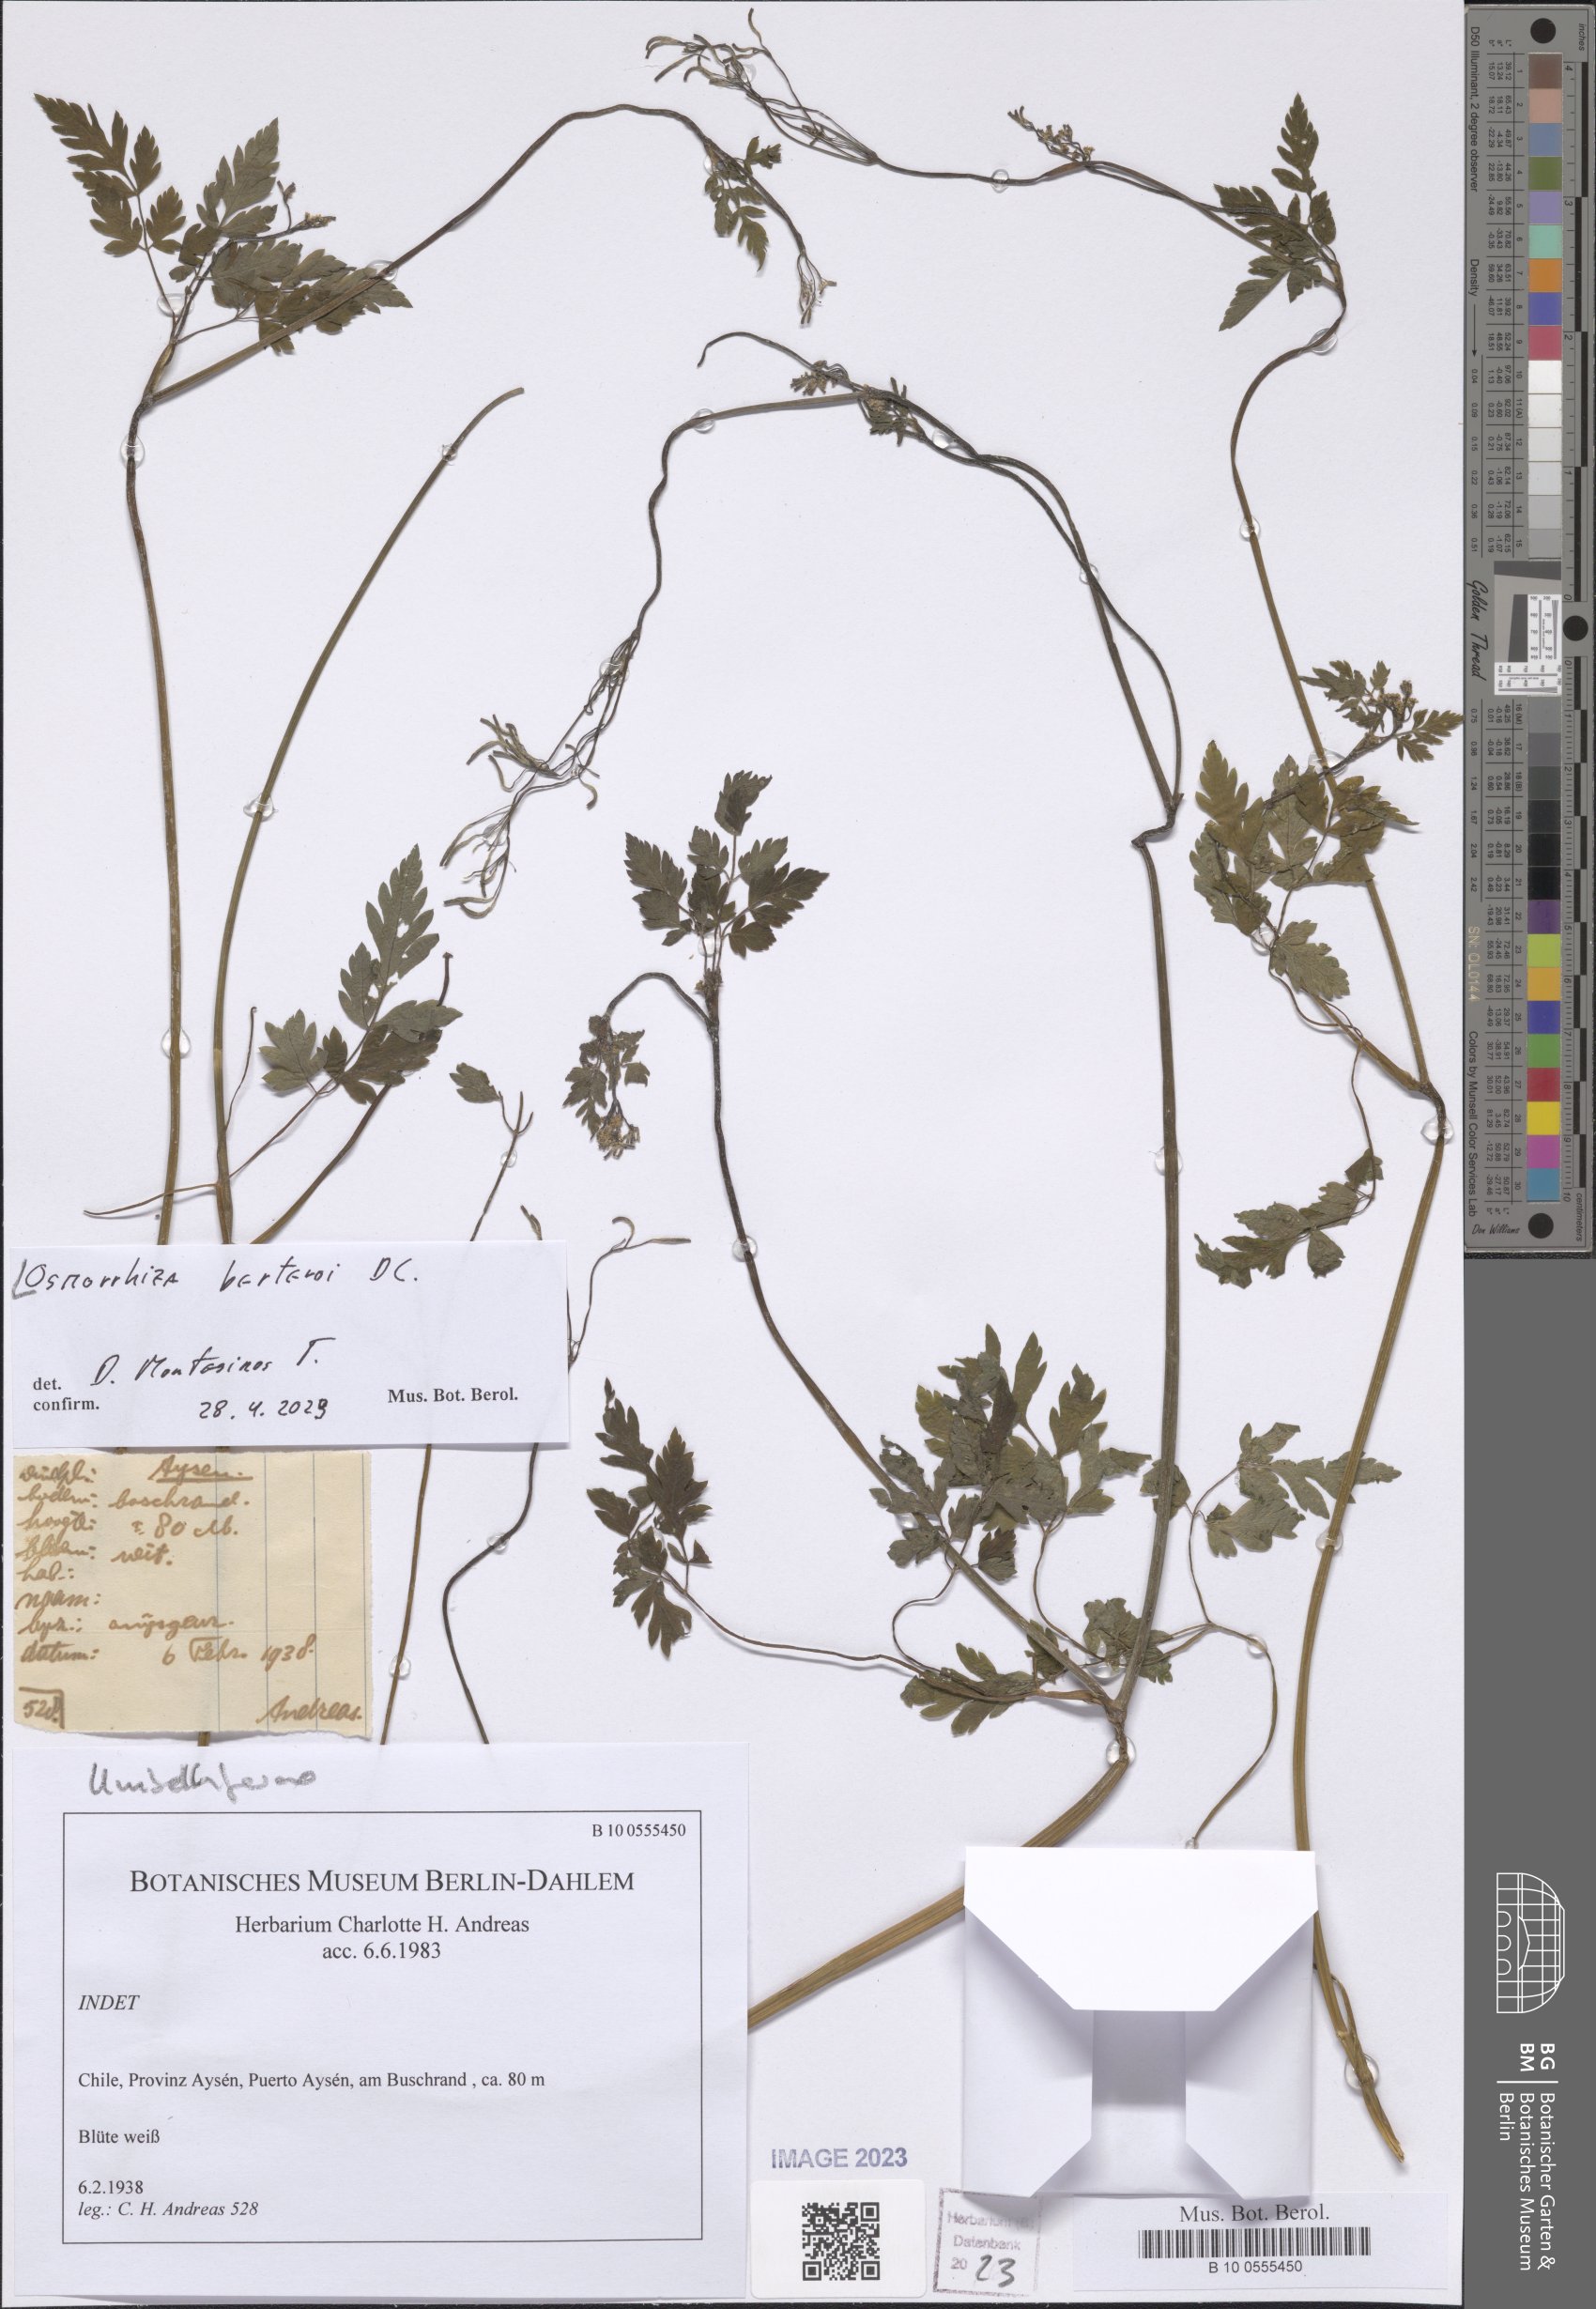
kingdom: Plantae
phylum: Tracheophyta
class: Magnoliopsida
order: Apiales
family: Apiaceae
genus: Osmorhiza
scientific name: Osmorhiza berteroi
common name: Mountain sweet cicely
